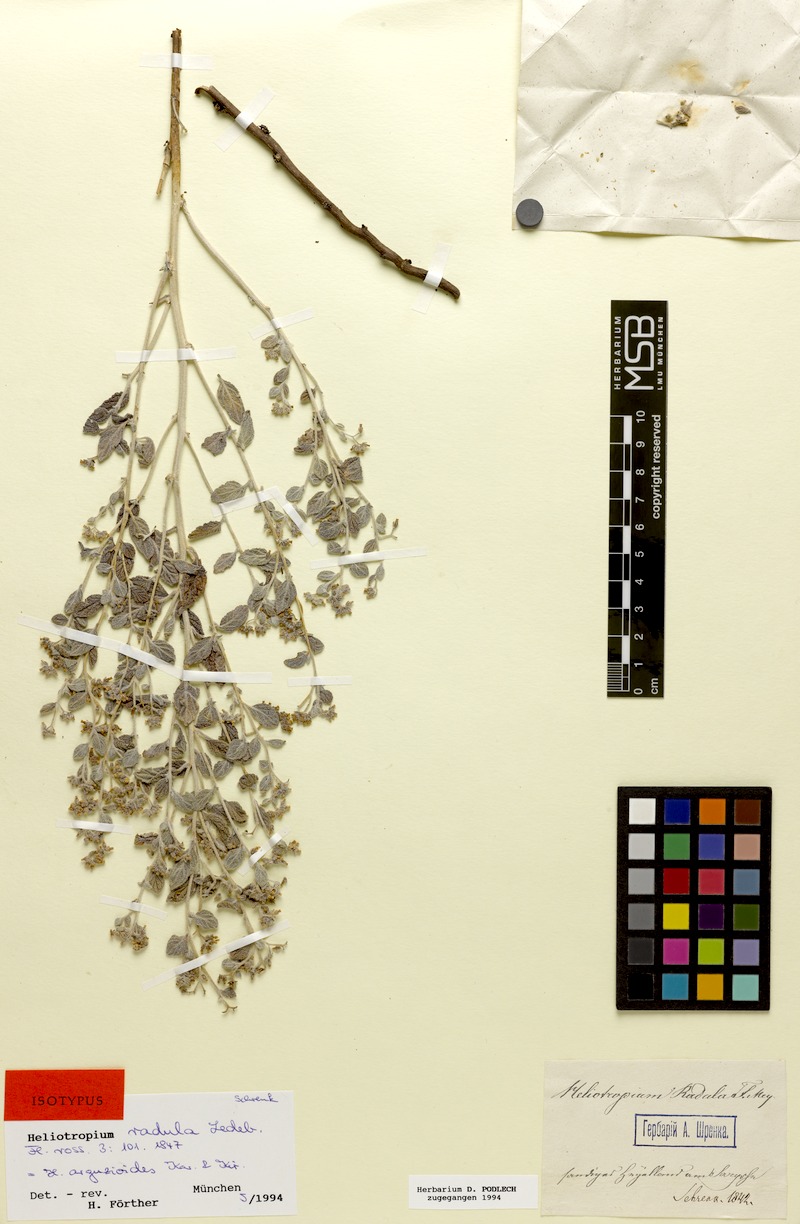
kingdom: Plantae
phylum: Tracheophyta
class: Magnoliopsida
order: Boraginales
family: Heliotropiaceae
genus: Heliotropium
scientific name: Heliotropium arguzioides
